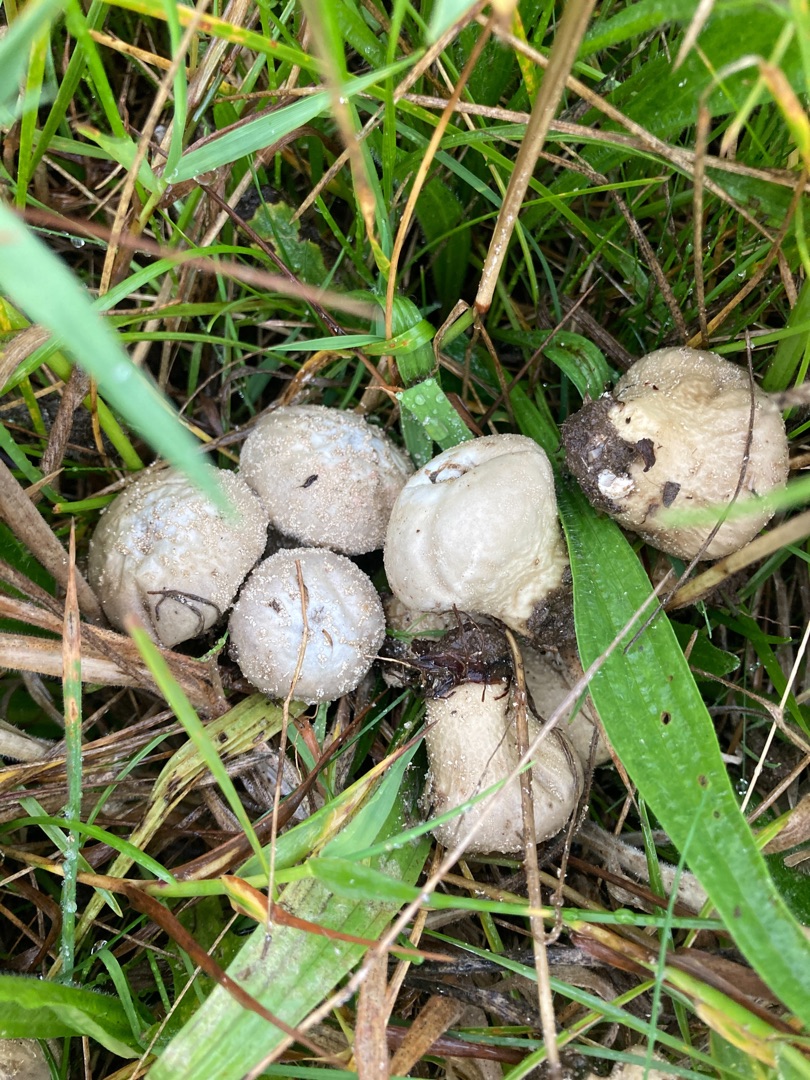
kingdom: Fungi
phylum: Basidiomycota
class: Agaricomycetes
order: Agaricales
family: Lycoperdaceae
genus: Lycoperdon
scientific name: Lycoperdon perlatum
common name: Krystal-støvbold
